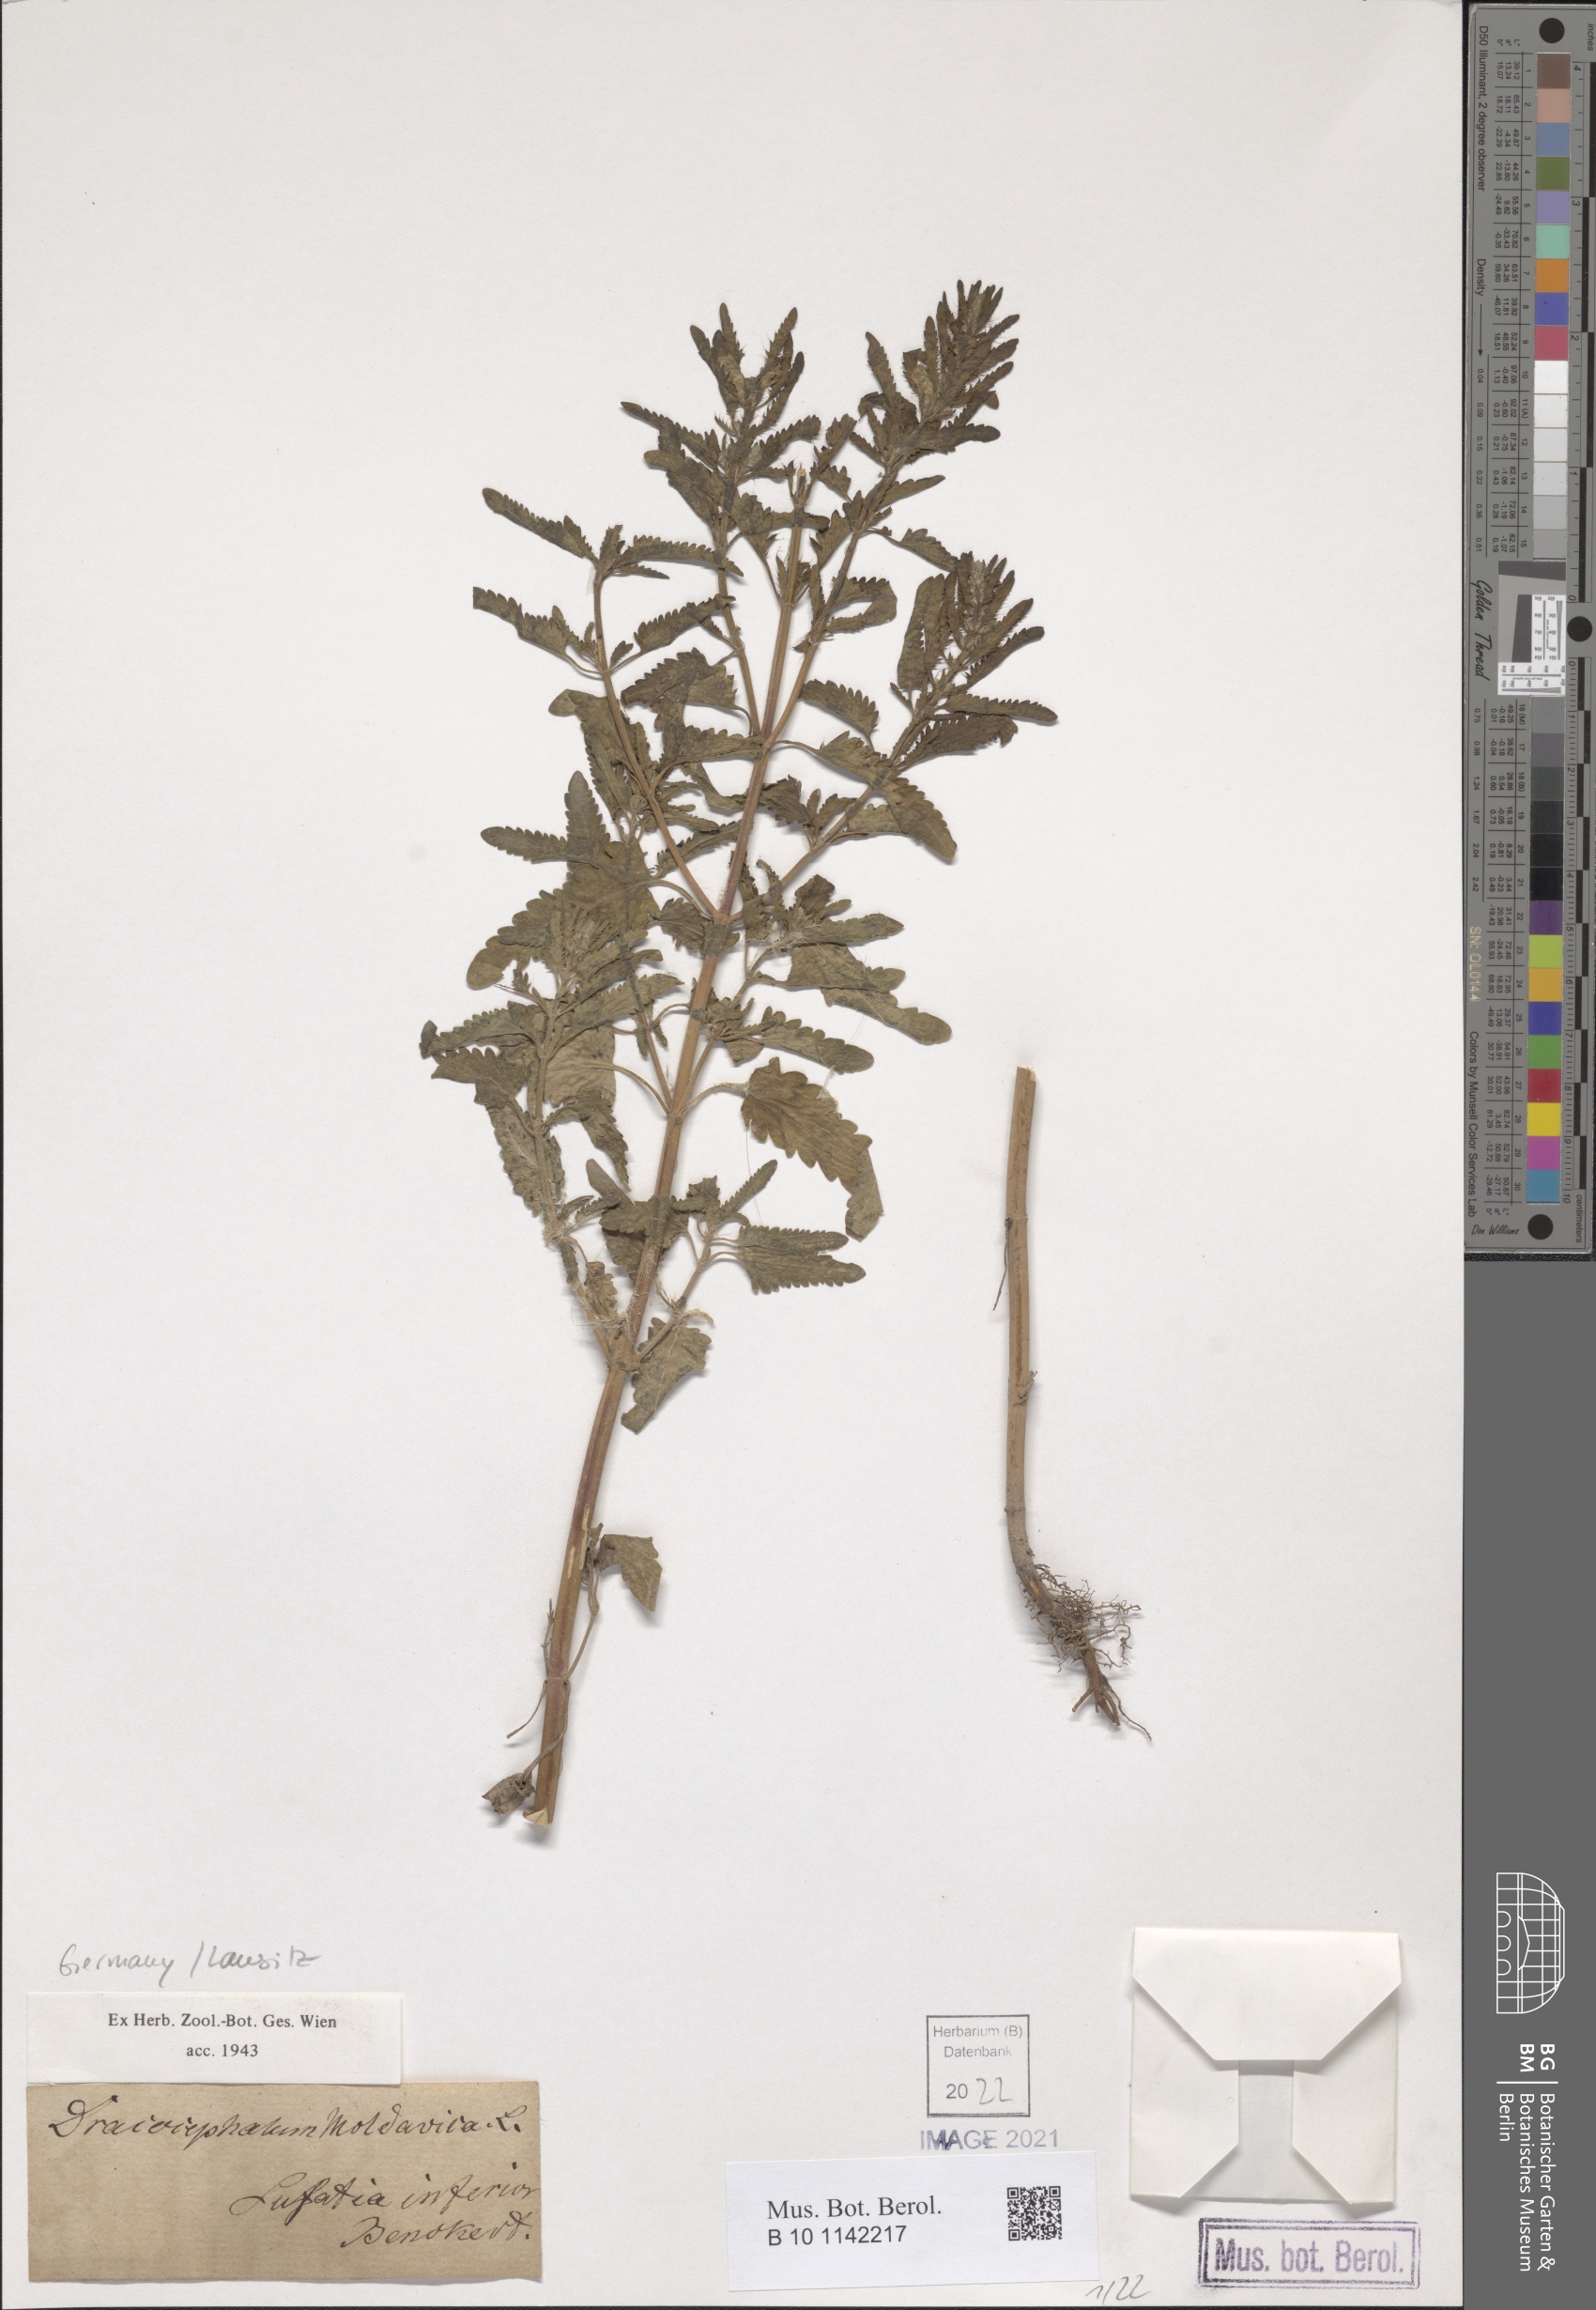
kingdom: Plantae
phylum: Tracheophyta
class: Magnoliopsida
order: Lamiales
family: Lamiaceae
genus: Dracocephalum
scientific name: Dracocephalum moldavica
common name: Moldavian dragonhead
